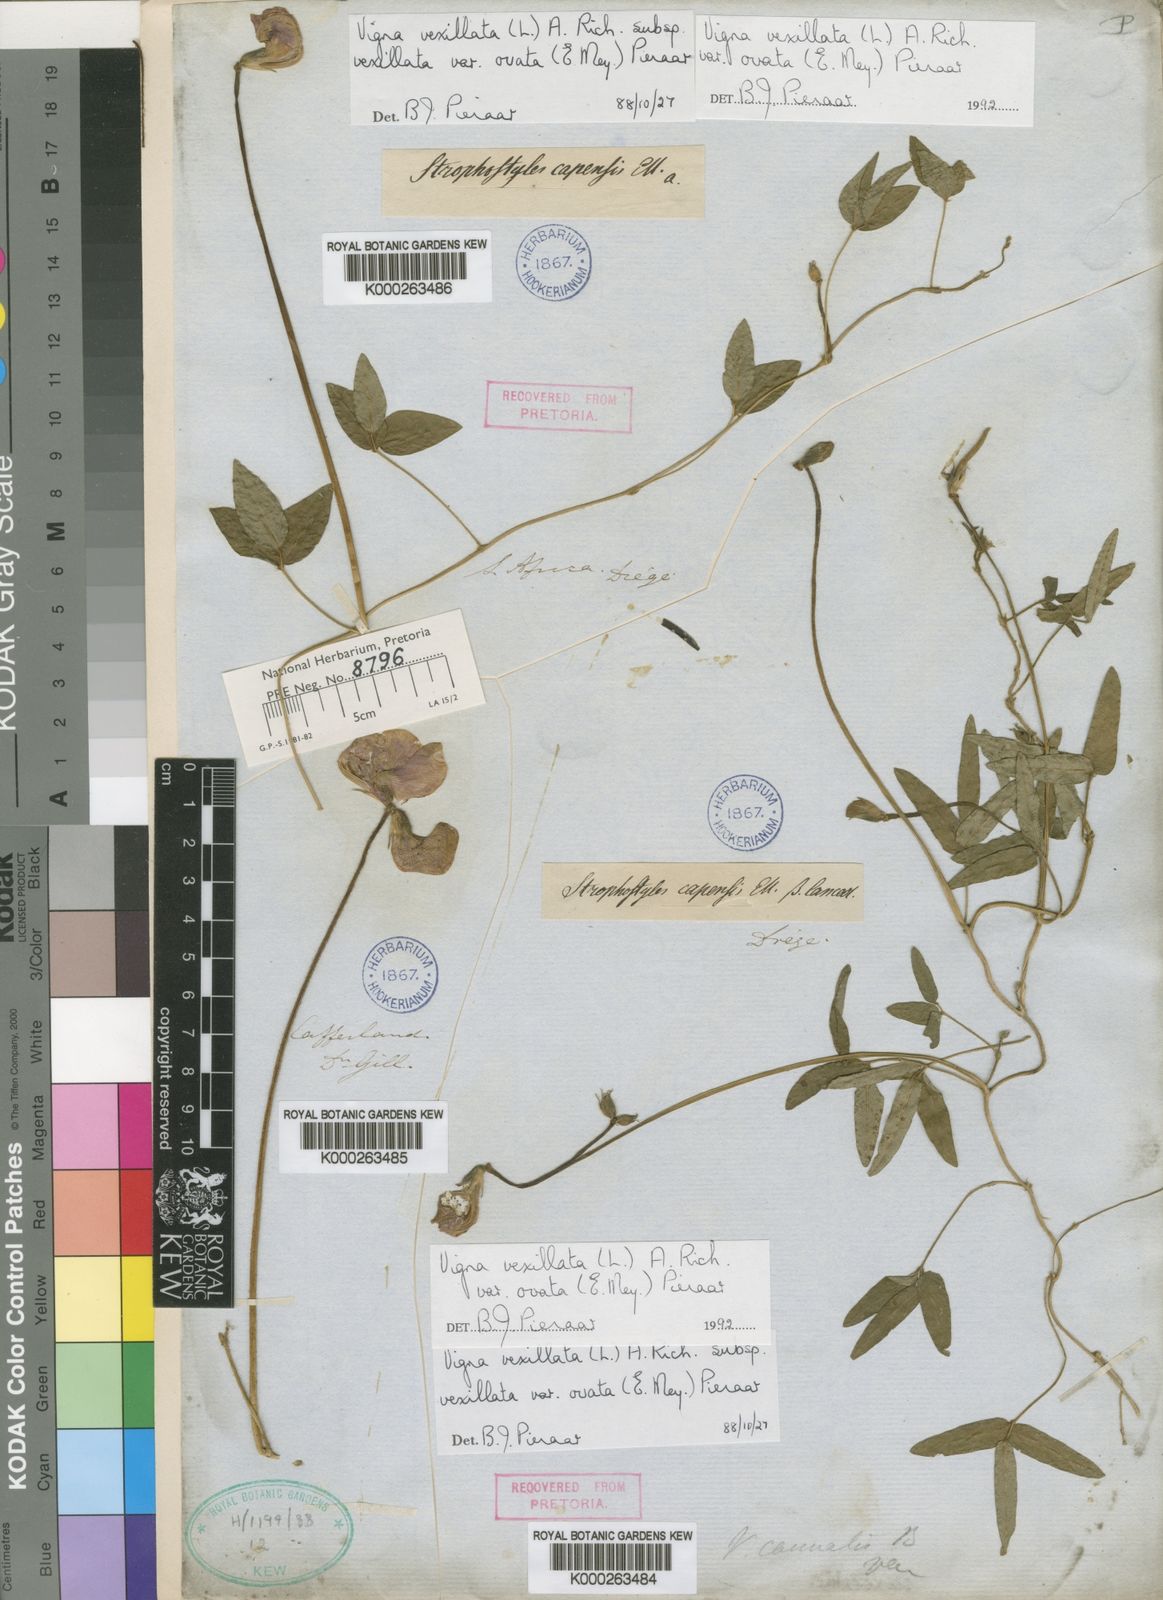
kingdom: Plantae
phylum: Tracheophyta
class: Magnoliopsida
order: Fabales
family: Fabaceae
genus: Vigna
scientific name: Vigna vexillata
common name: Zombi pea
